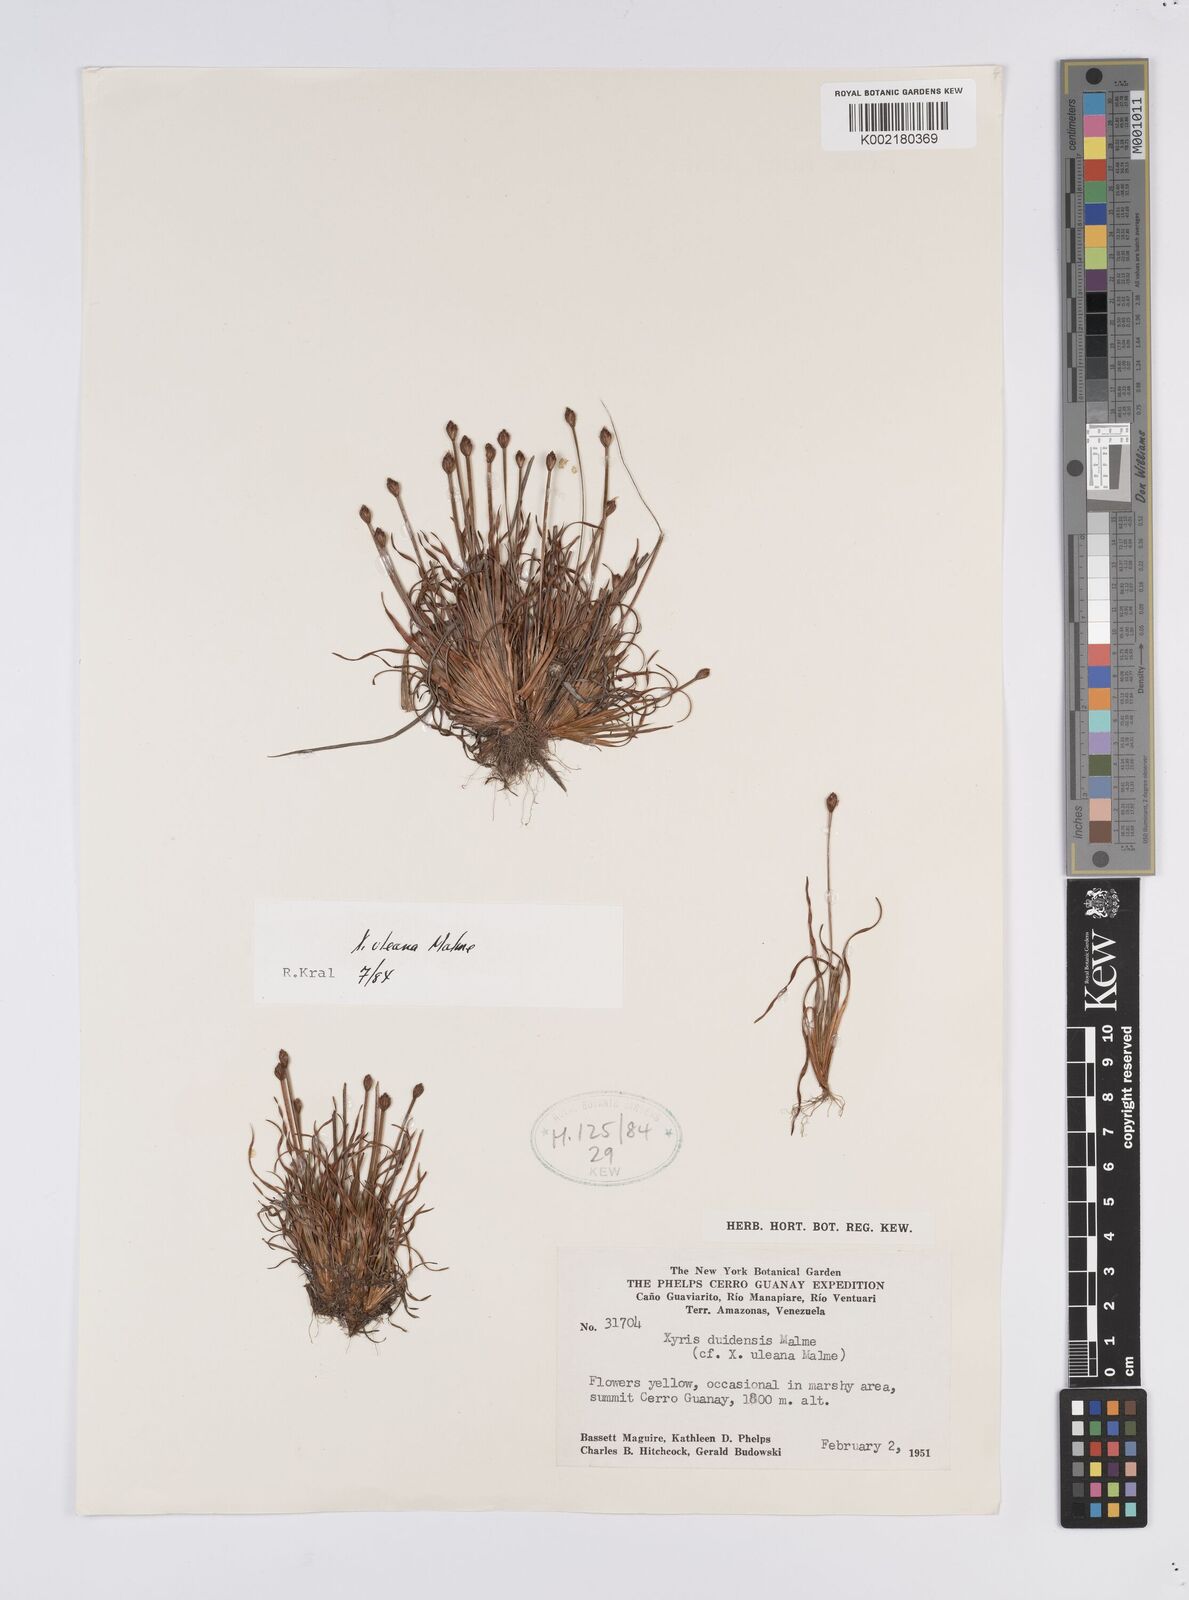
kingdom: Plantae
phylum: Tracheophyta
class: Liliopsida
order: Poales
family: Xyridaceae
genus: Xyris
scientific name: Xyris uleana
